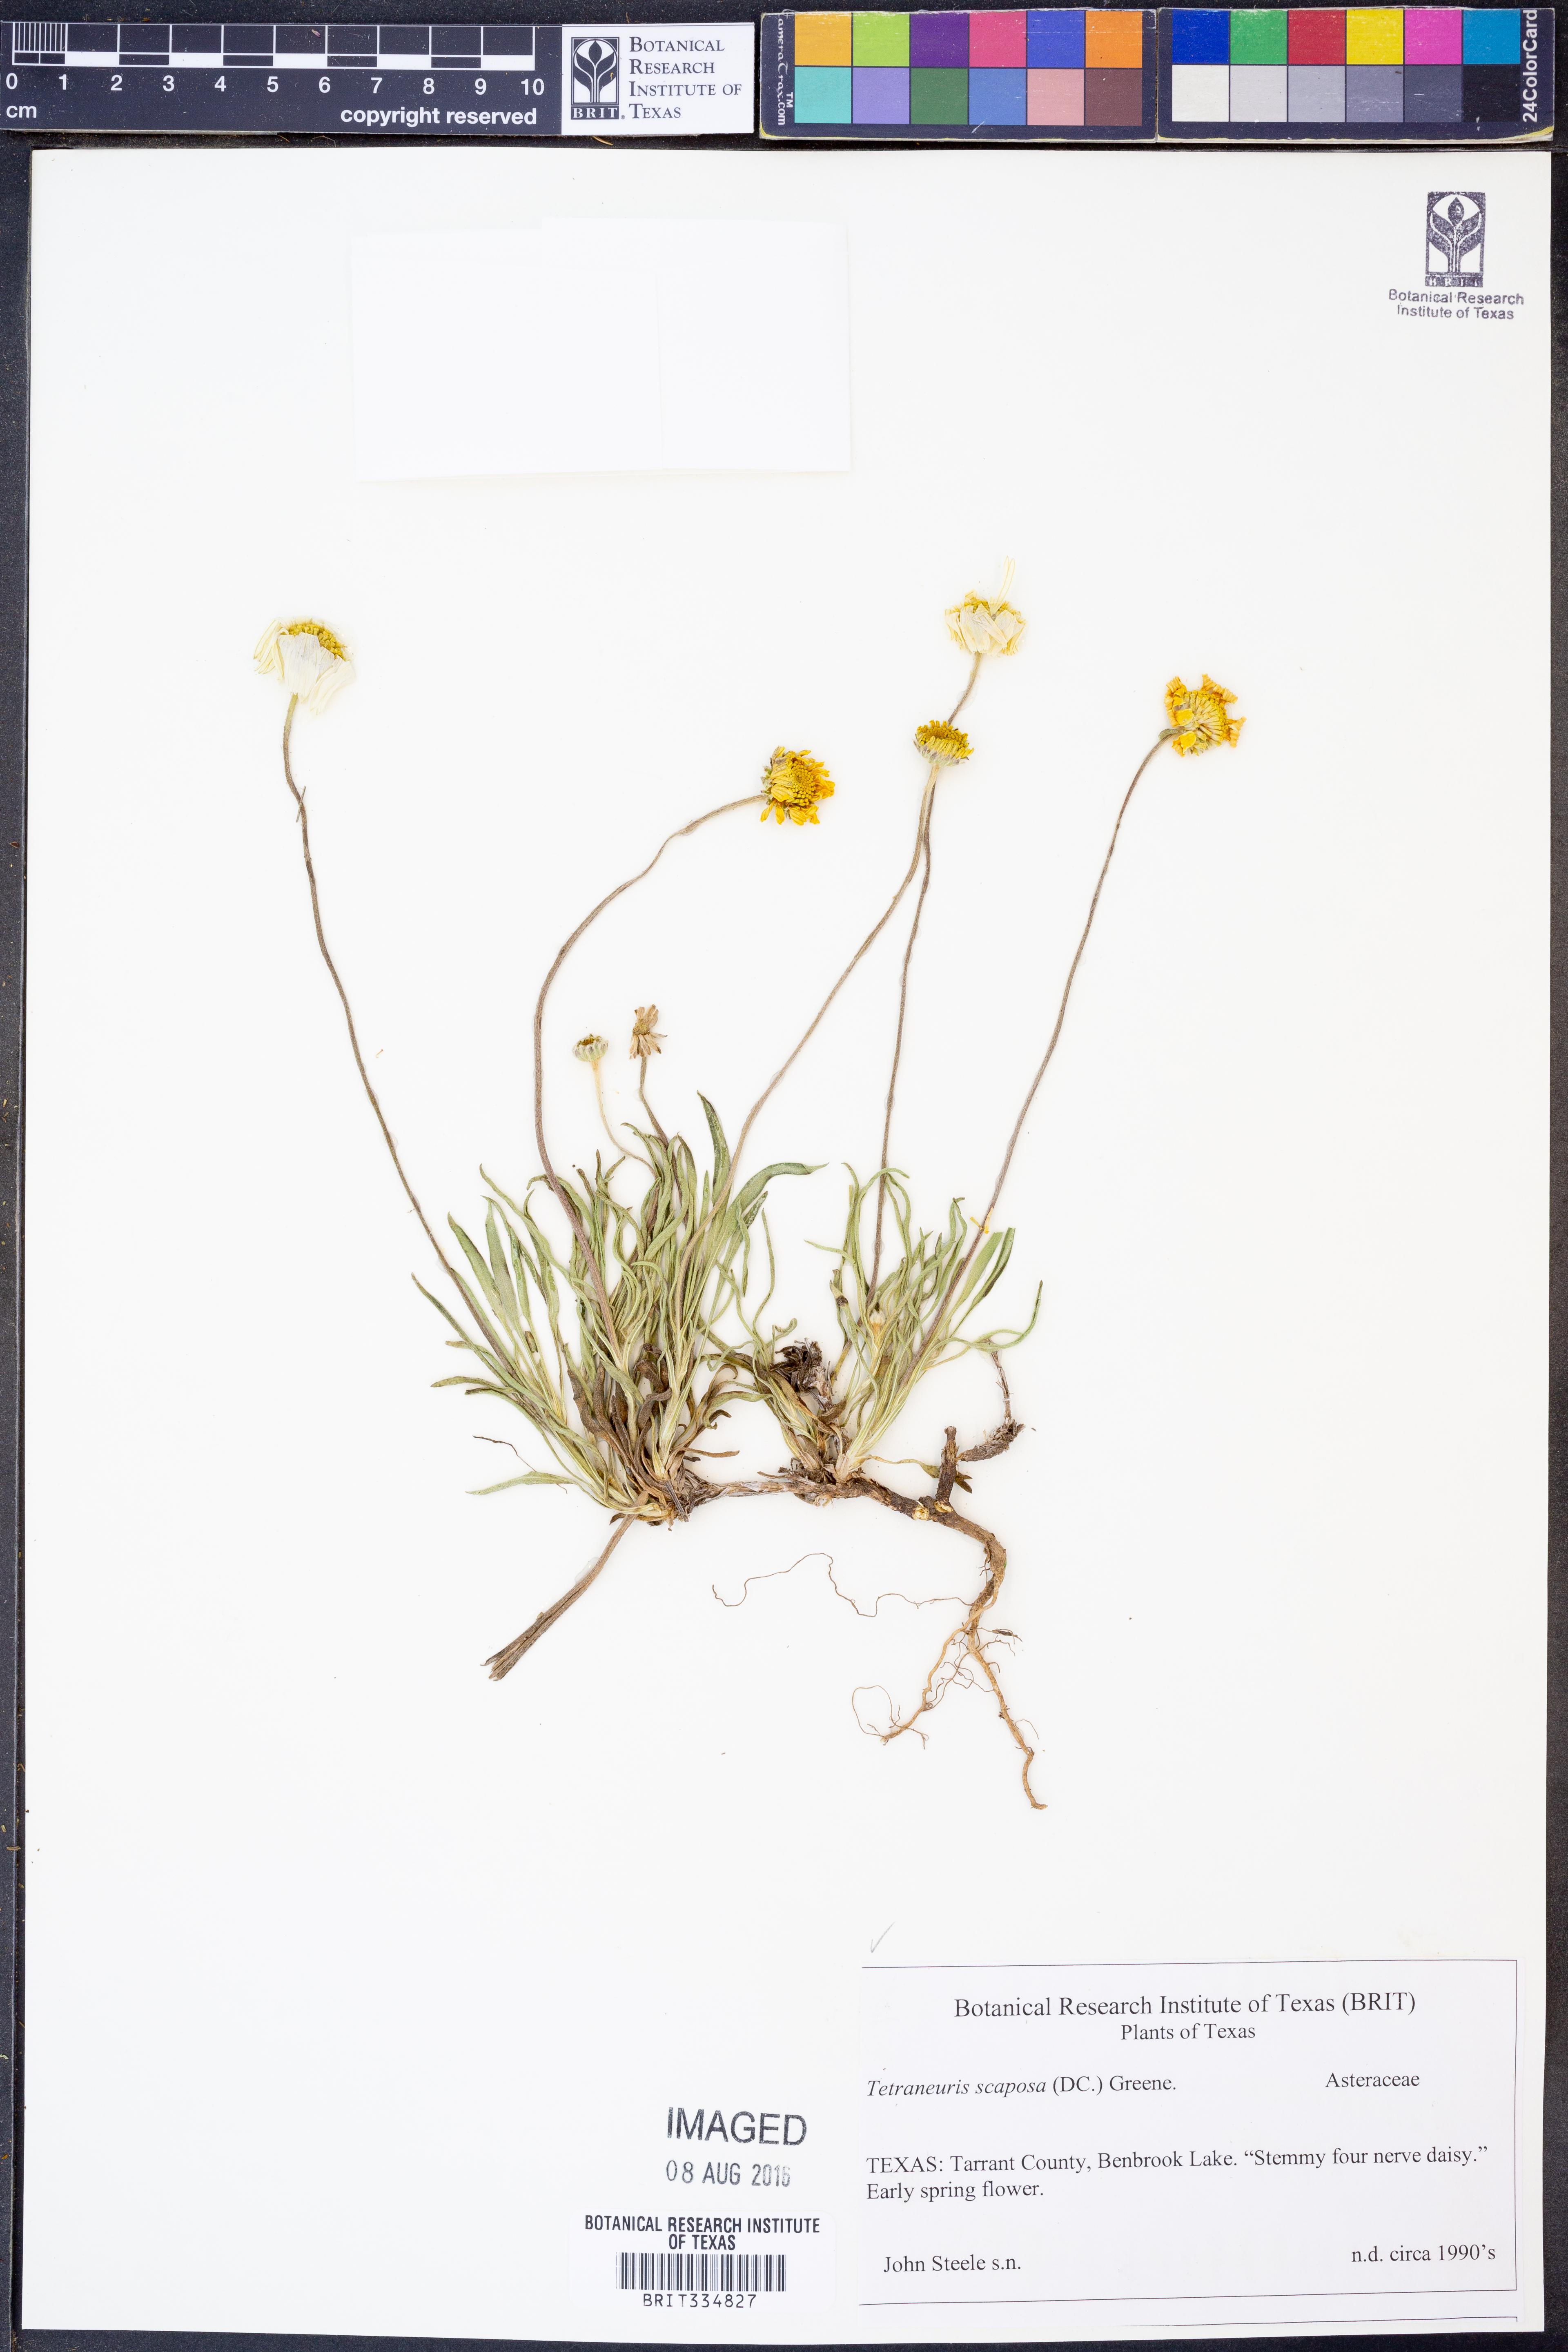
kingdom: Plantae
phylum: Tracheophyta
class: Magnoliopsida
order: Asterales
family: Asteraceae
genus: Tetraneuris
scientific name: Tetraneuris scaposa
